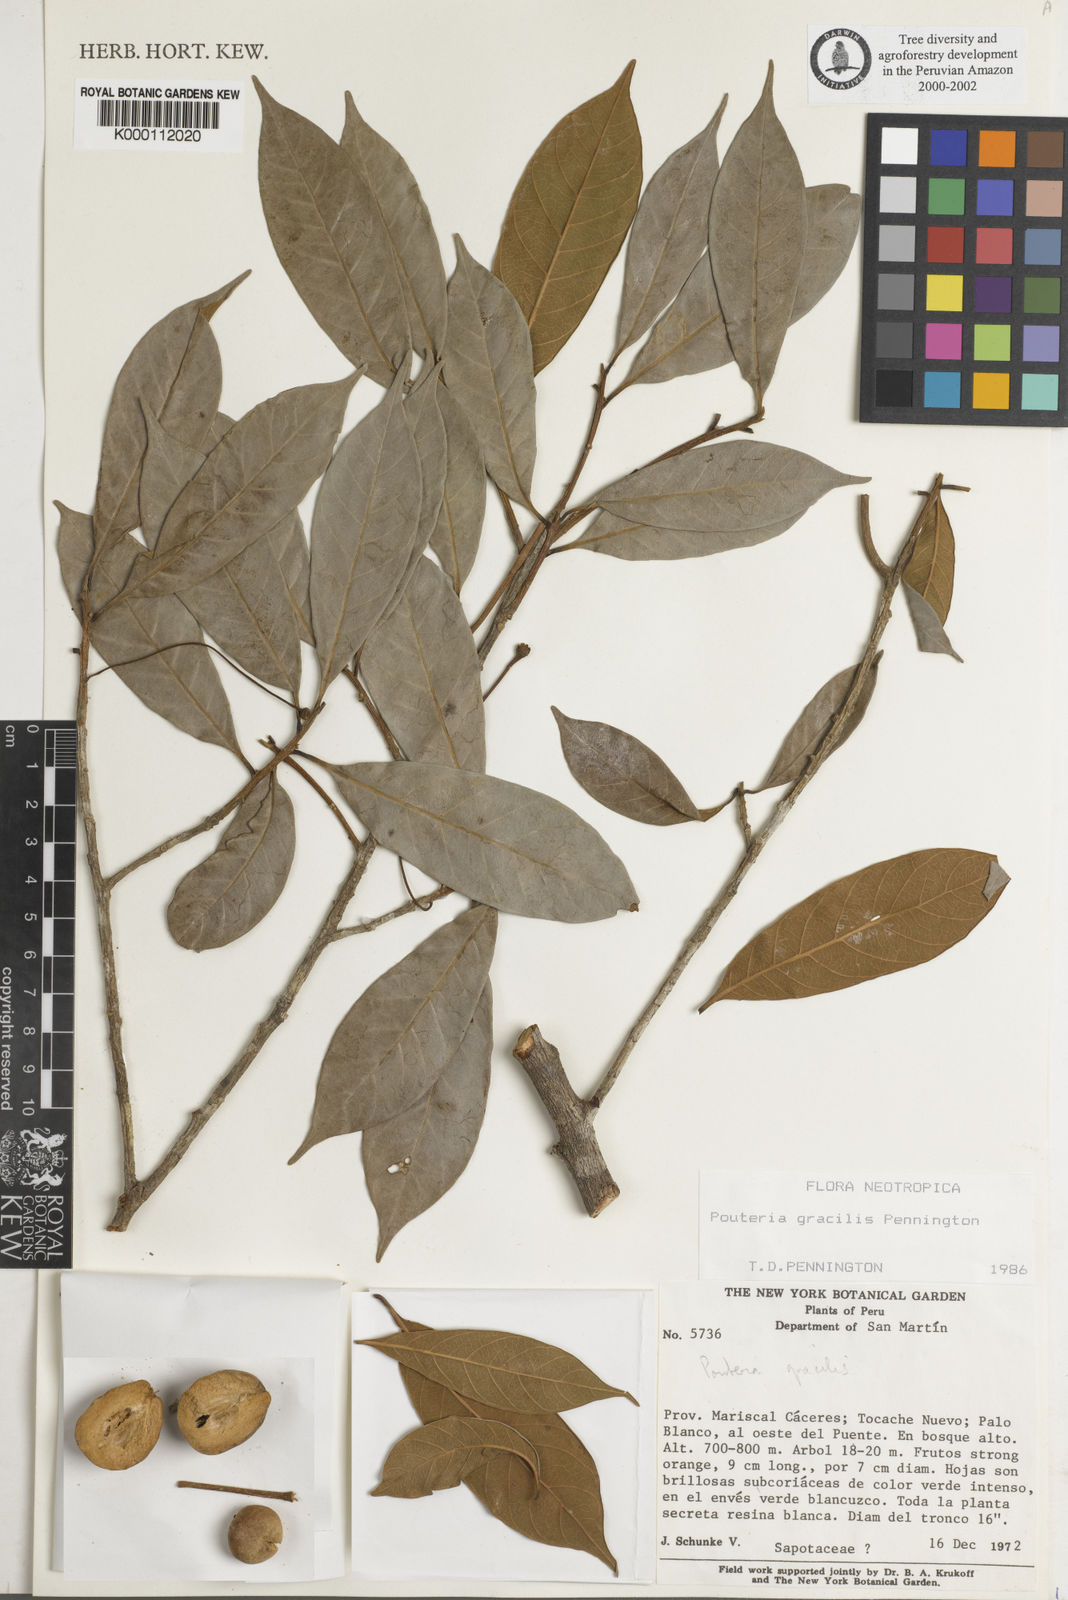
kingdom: Plantae
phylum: Tracheophyta
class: Magnoliopsida
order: Ericales
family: Sapotaceae
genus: Pouteria
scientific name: Pouteria gracilis
